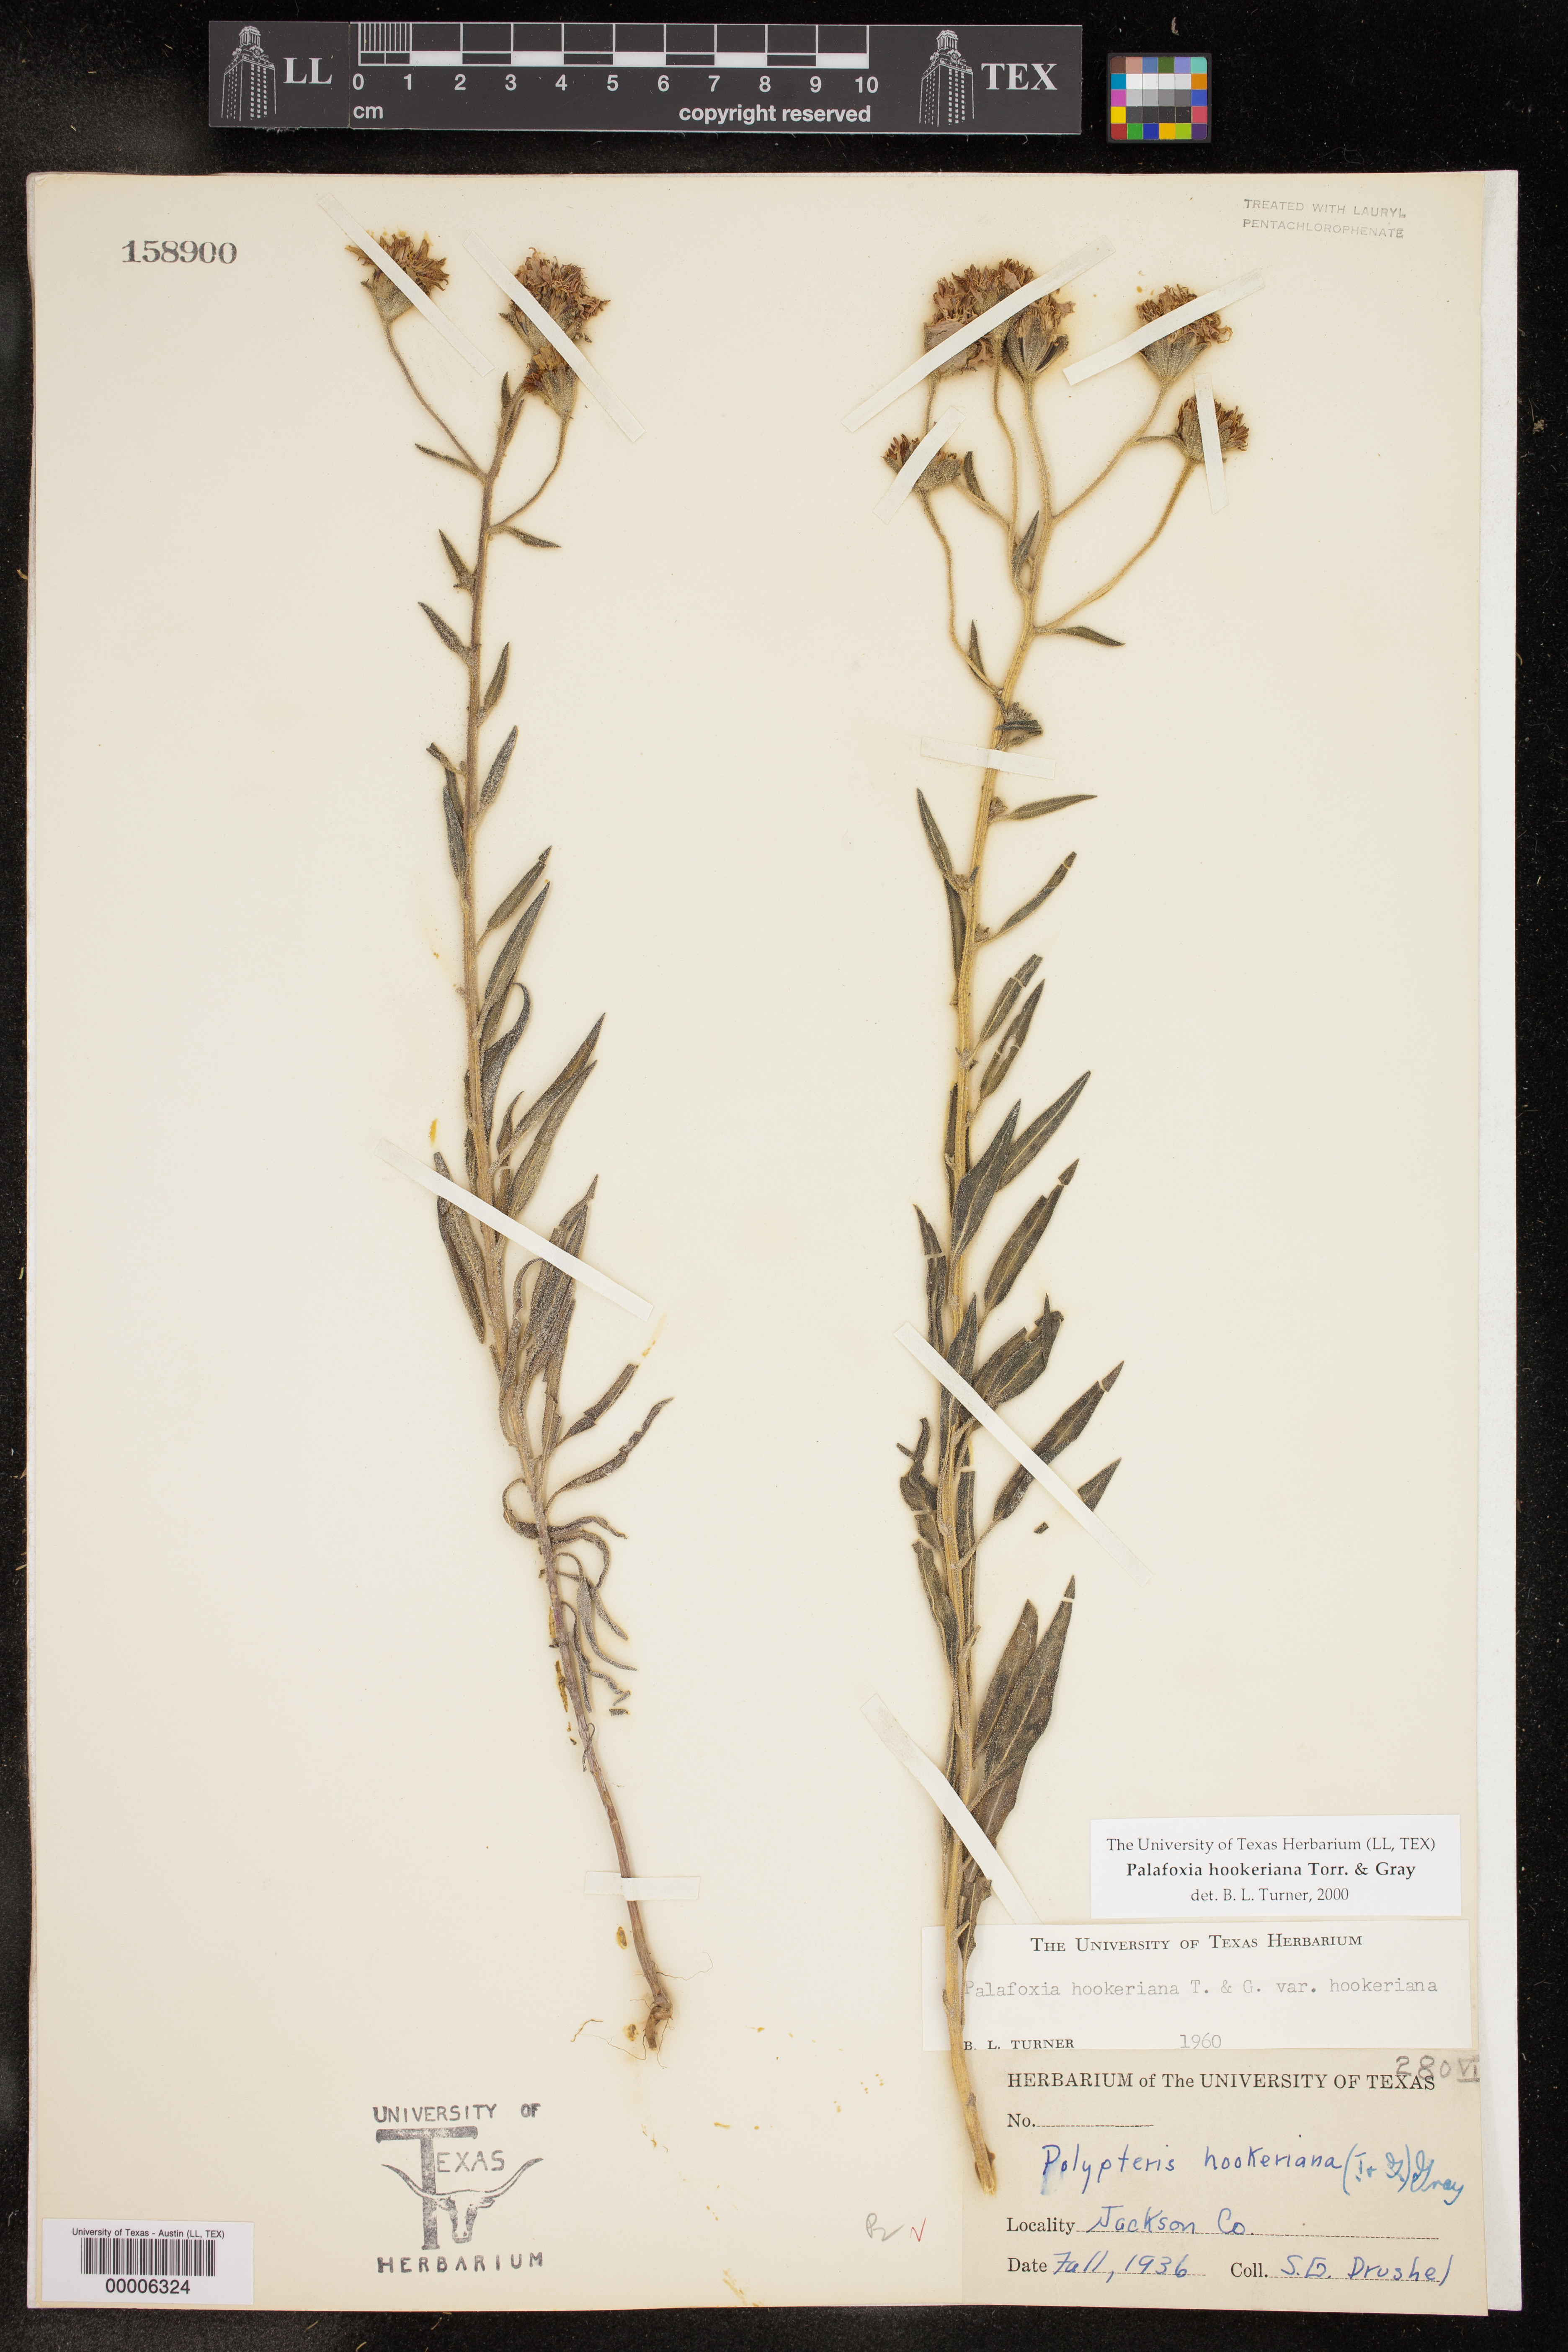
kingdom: Plantae
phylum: Tracheophyta
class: Magnoliopsida
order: Asterales
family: Asteraceae
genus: Palafoxia
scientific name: Palafoxia hookeriana
